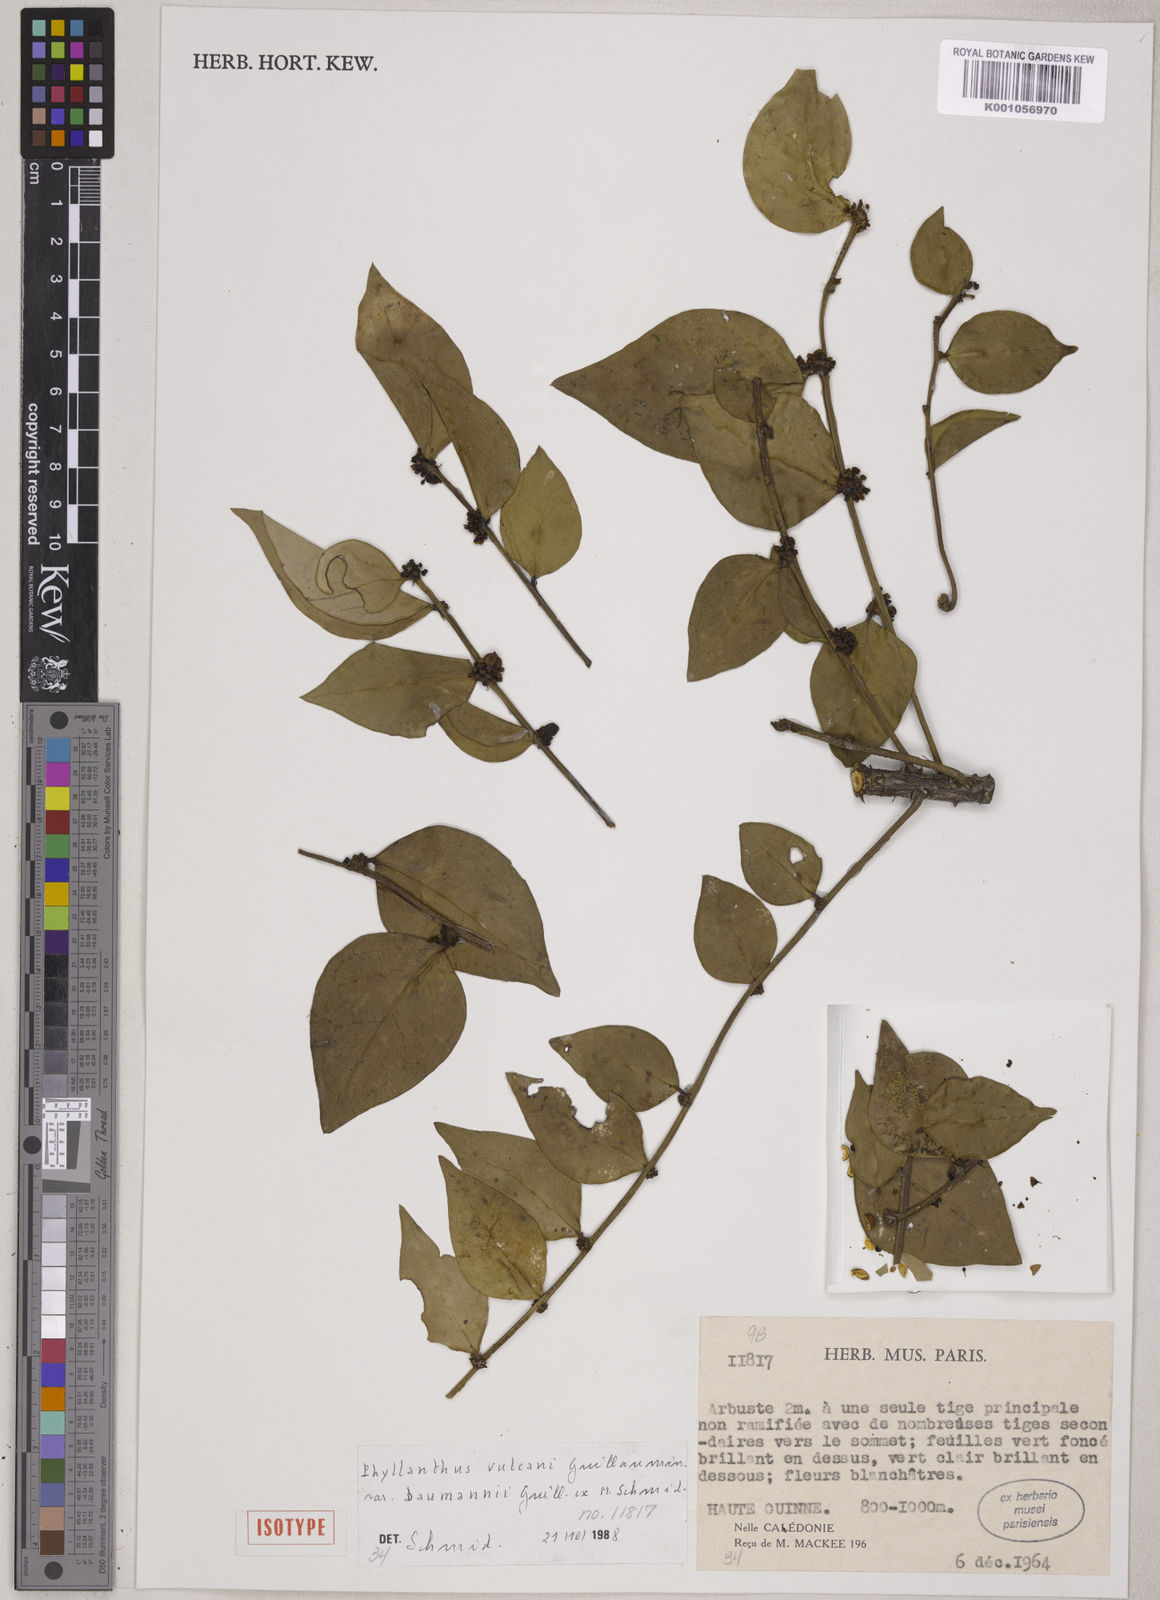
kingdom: Plantae
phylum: Tracheophyta
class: Magnoliopsida
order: Malpighiales
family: Phyllanthaceae
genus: Phyllanthus
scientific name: Phyllanthus vulcani
